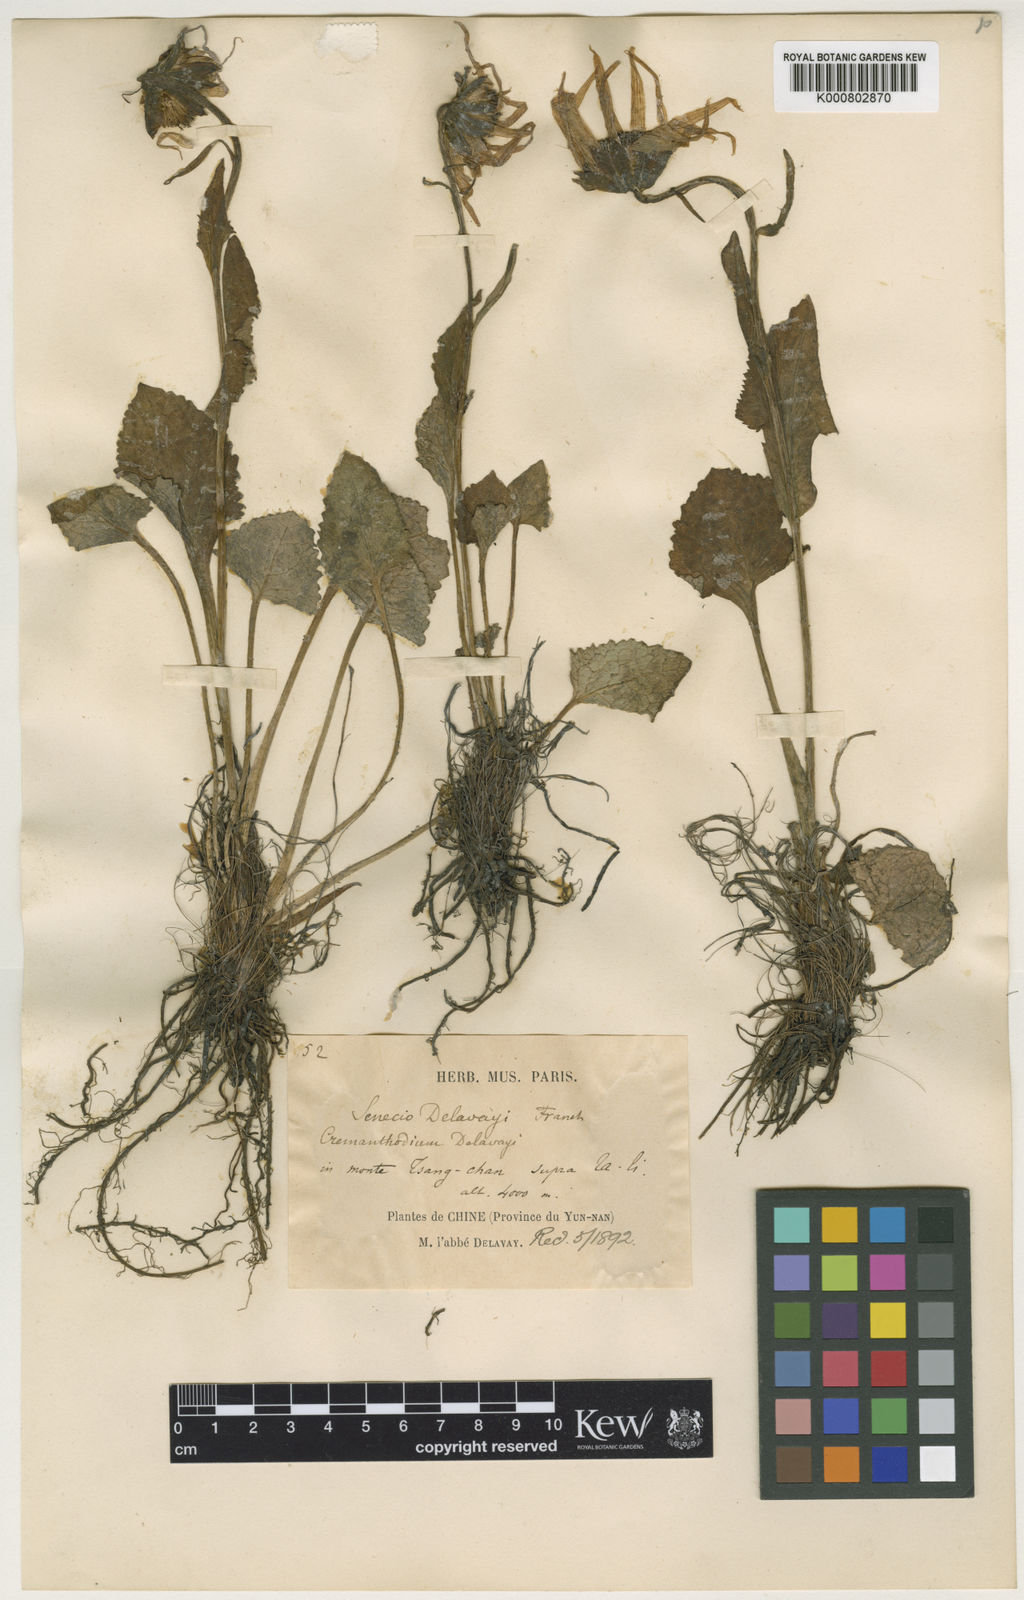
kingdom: Plantae
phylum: Tracheophyta
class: Magnoliopsida
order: Asterales
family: Asteraceae
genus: Cremanthodium
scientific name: Cremanthodium
